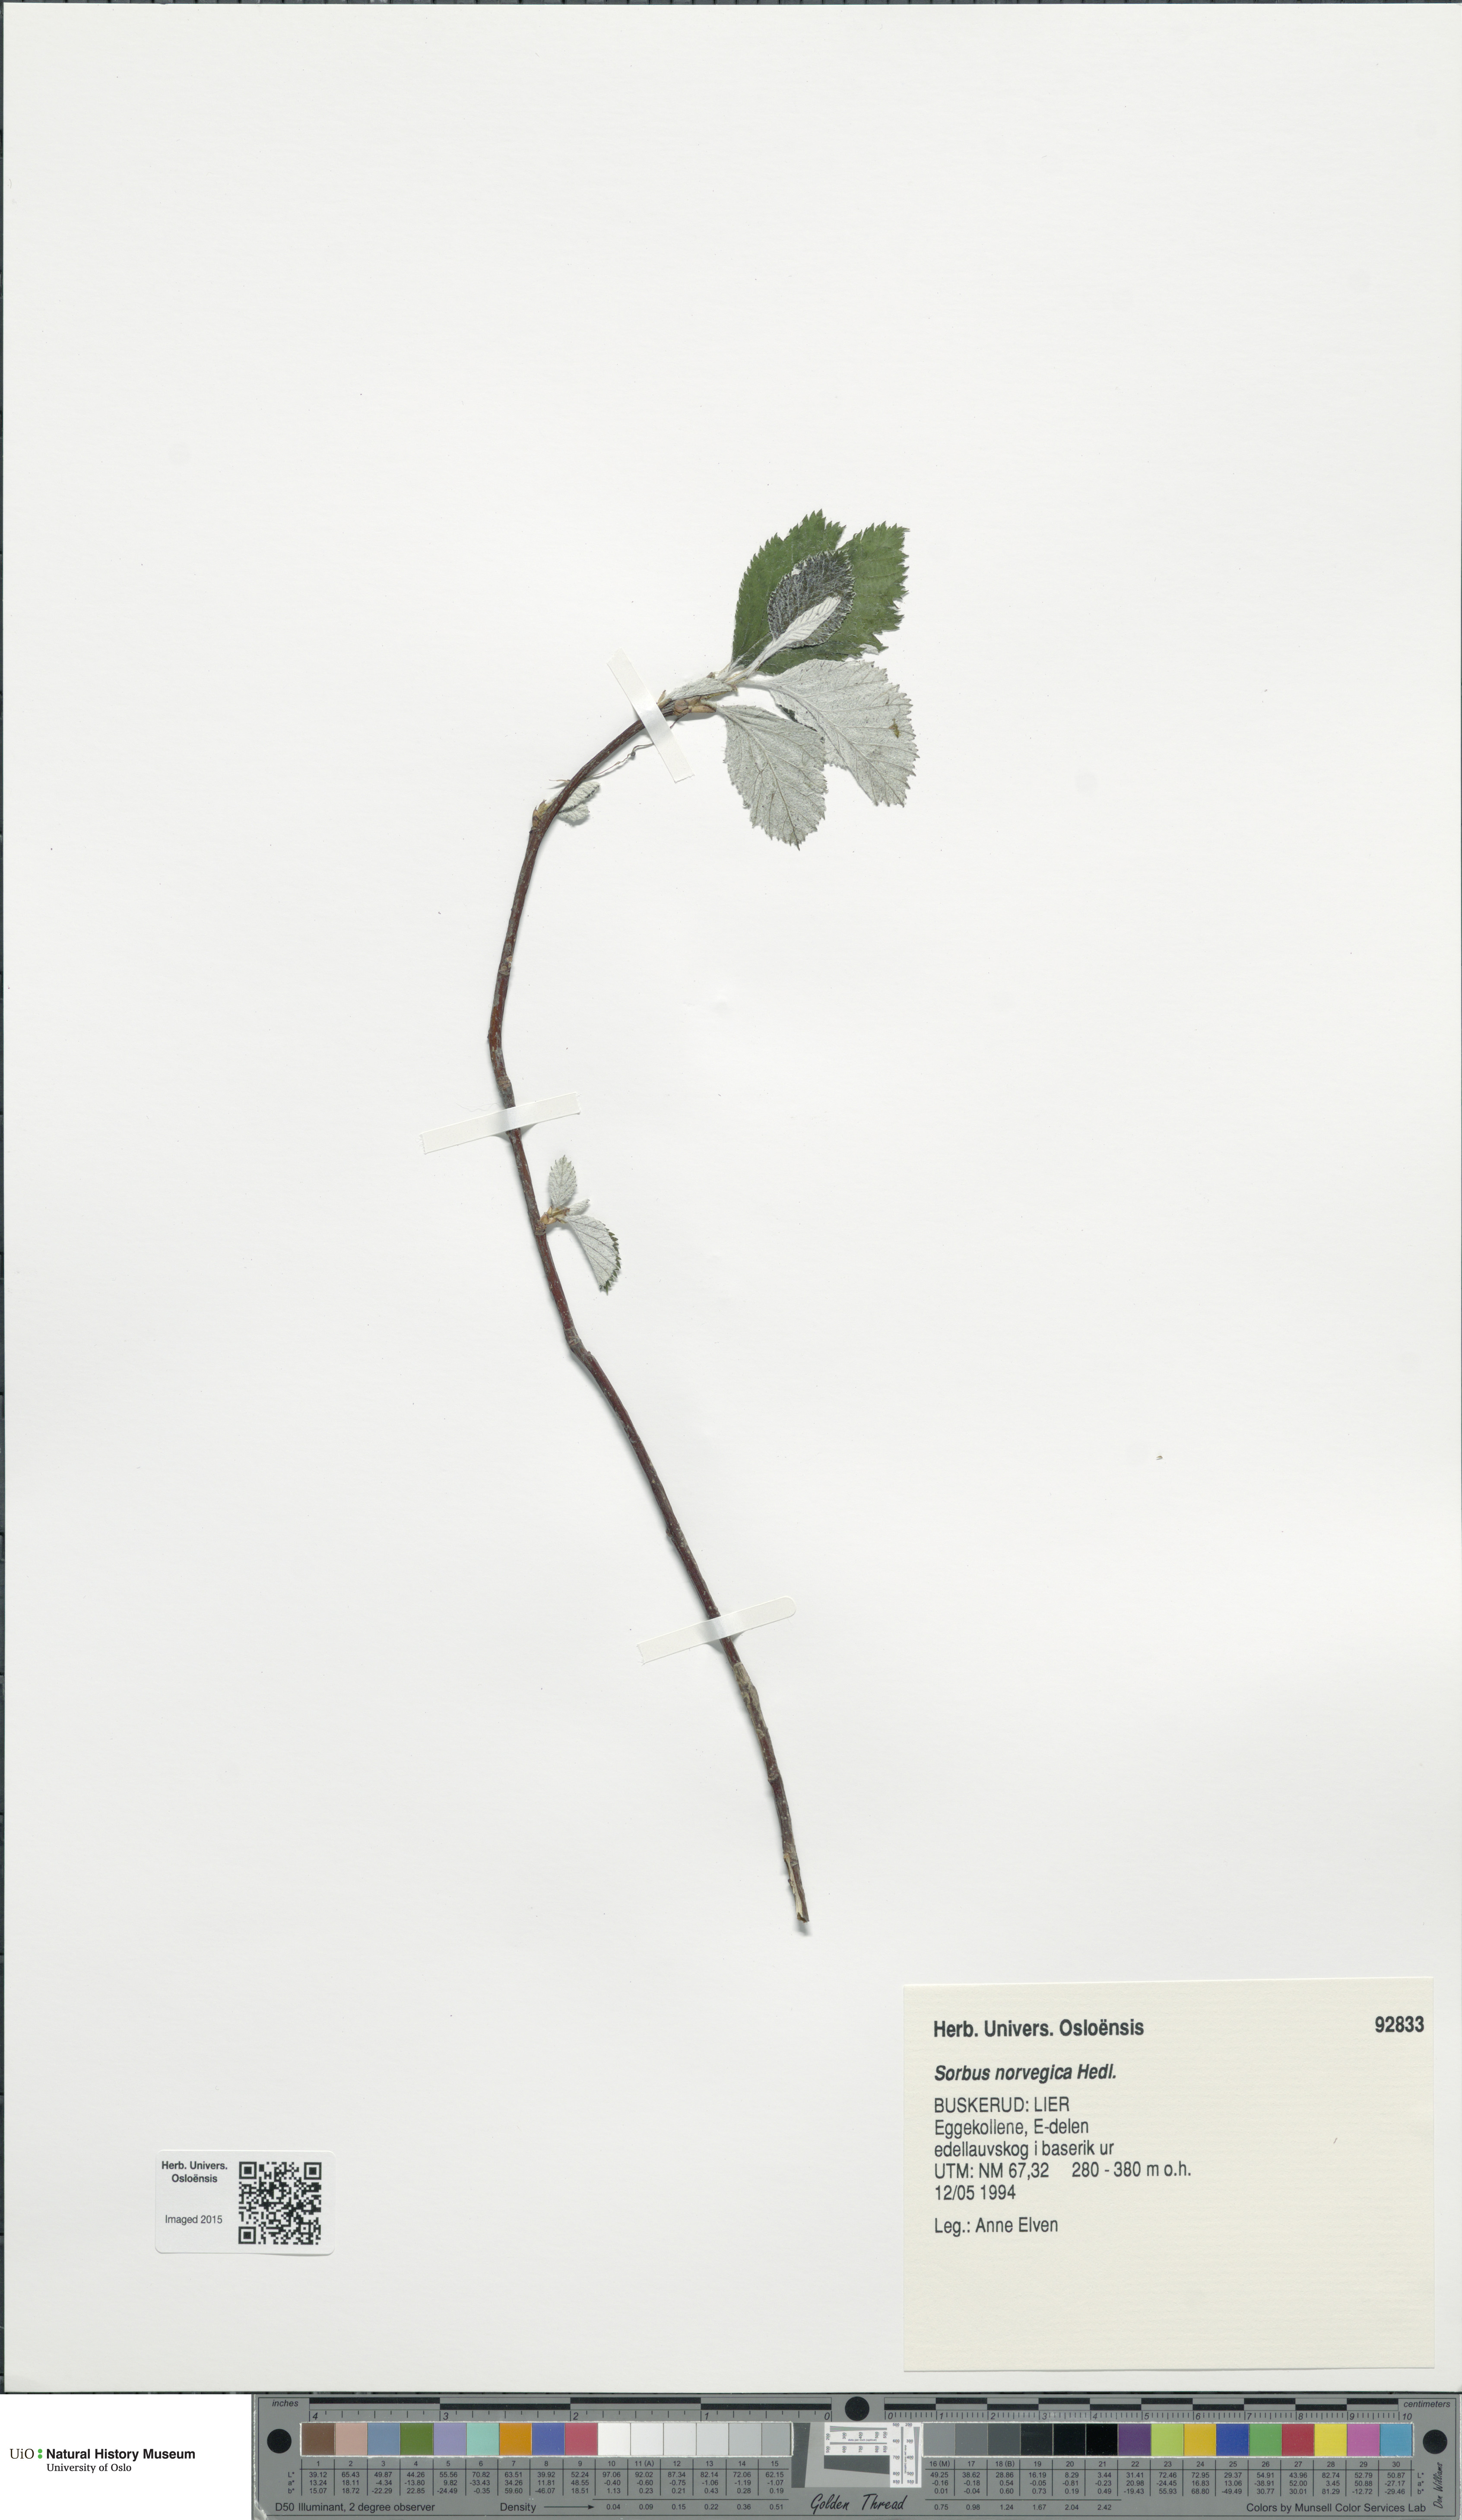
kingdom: Plantae
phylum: Tracheophyta
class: Magnoliopsida
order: Rosales
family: Rosaceae
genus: Aria
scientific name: Aria obtusifolia
